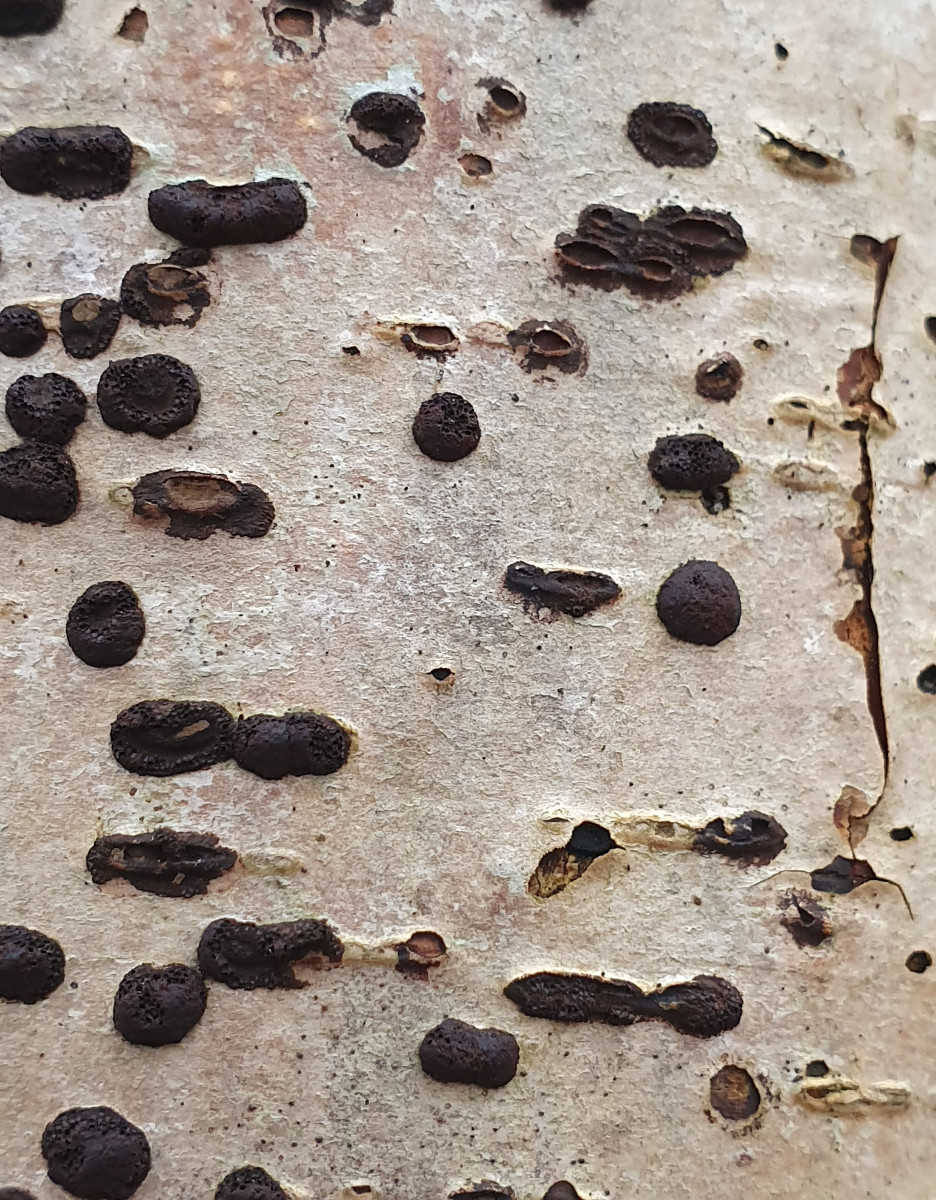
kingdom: Fungi
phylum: Ascomycota
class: Sordariomycetes
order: Xylariales
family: Hypoxylaceae
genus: Hypoxylon
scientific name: Hypoxylon fuscum
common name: kegleformet kulbær
